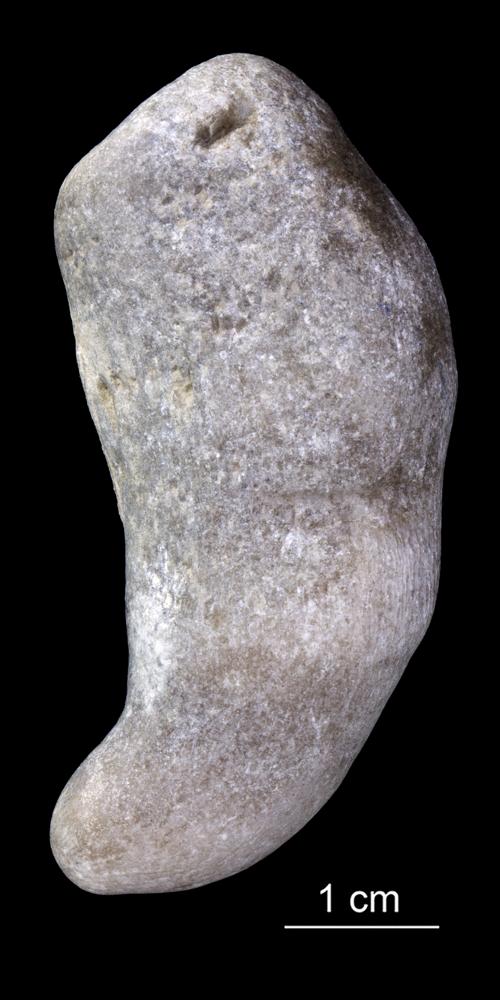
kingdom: Animalia
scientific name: Animalia
